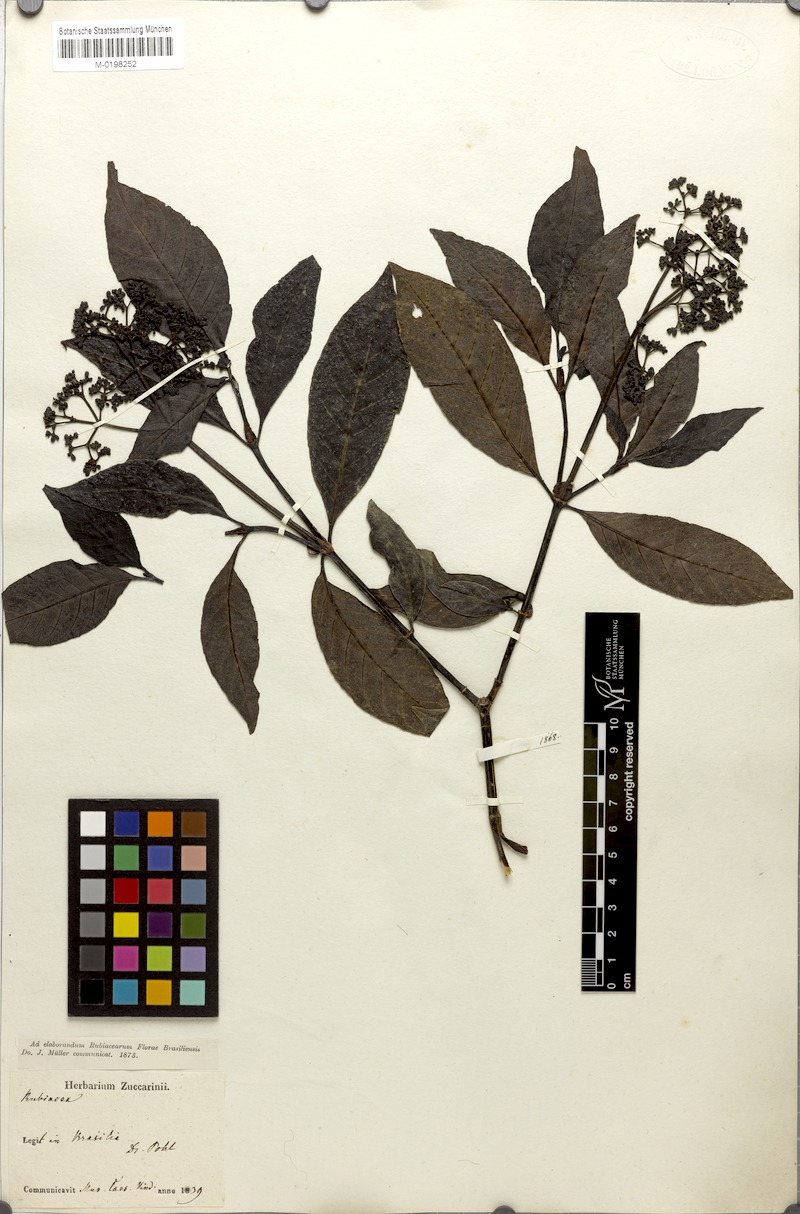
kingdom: Plantae
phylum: Tracheophyta
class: Magnoliopsida
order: Gentianales
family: Rubiaceae
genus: Psychotria
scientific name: Psychotria carthagenensis
